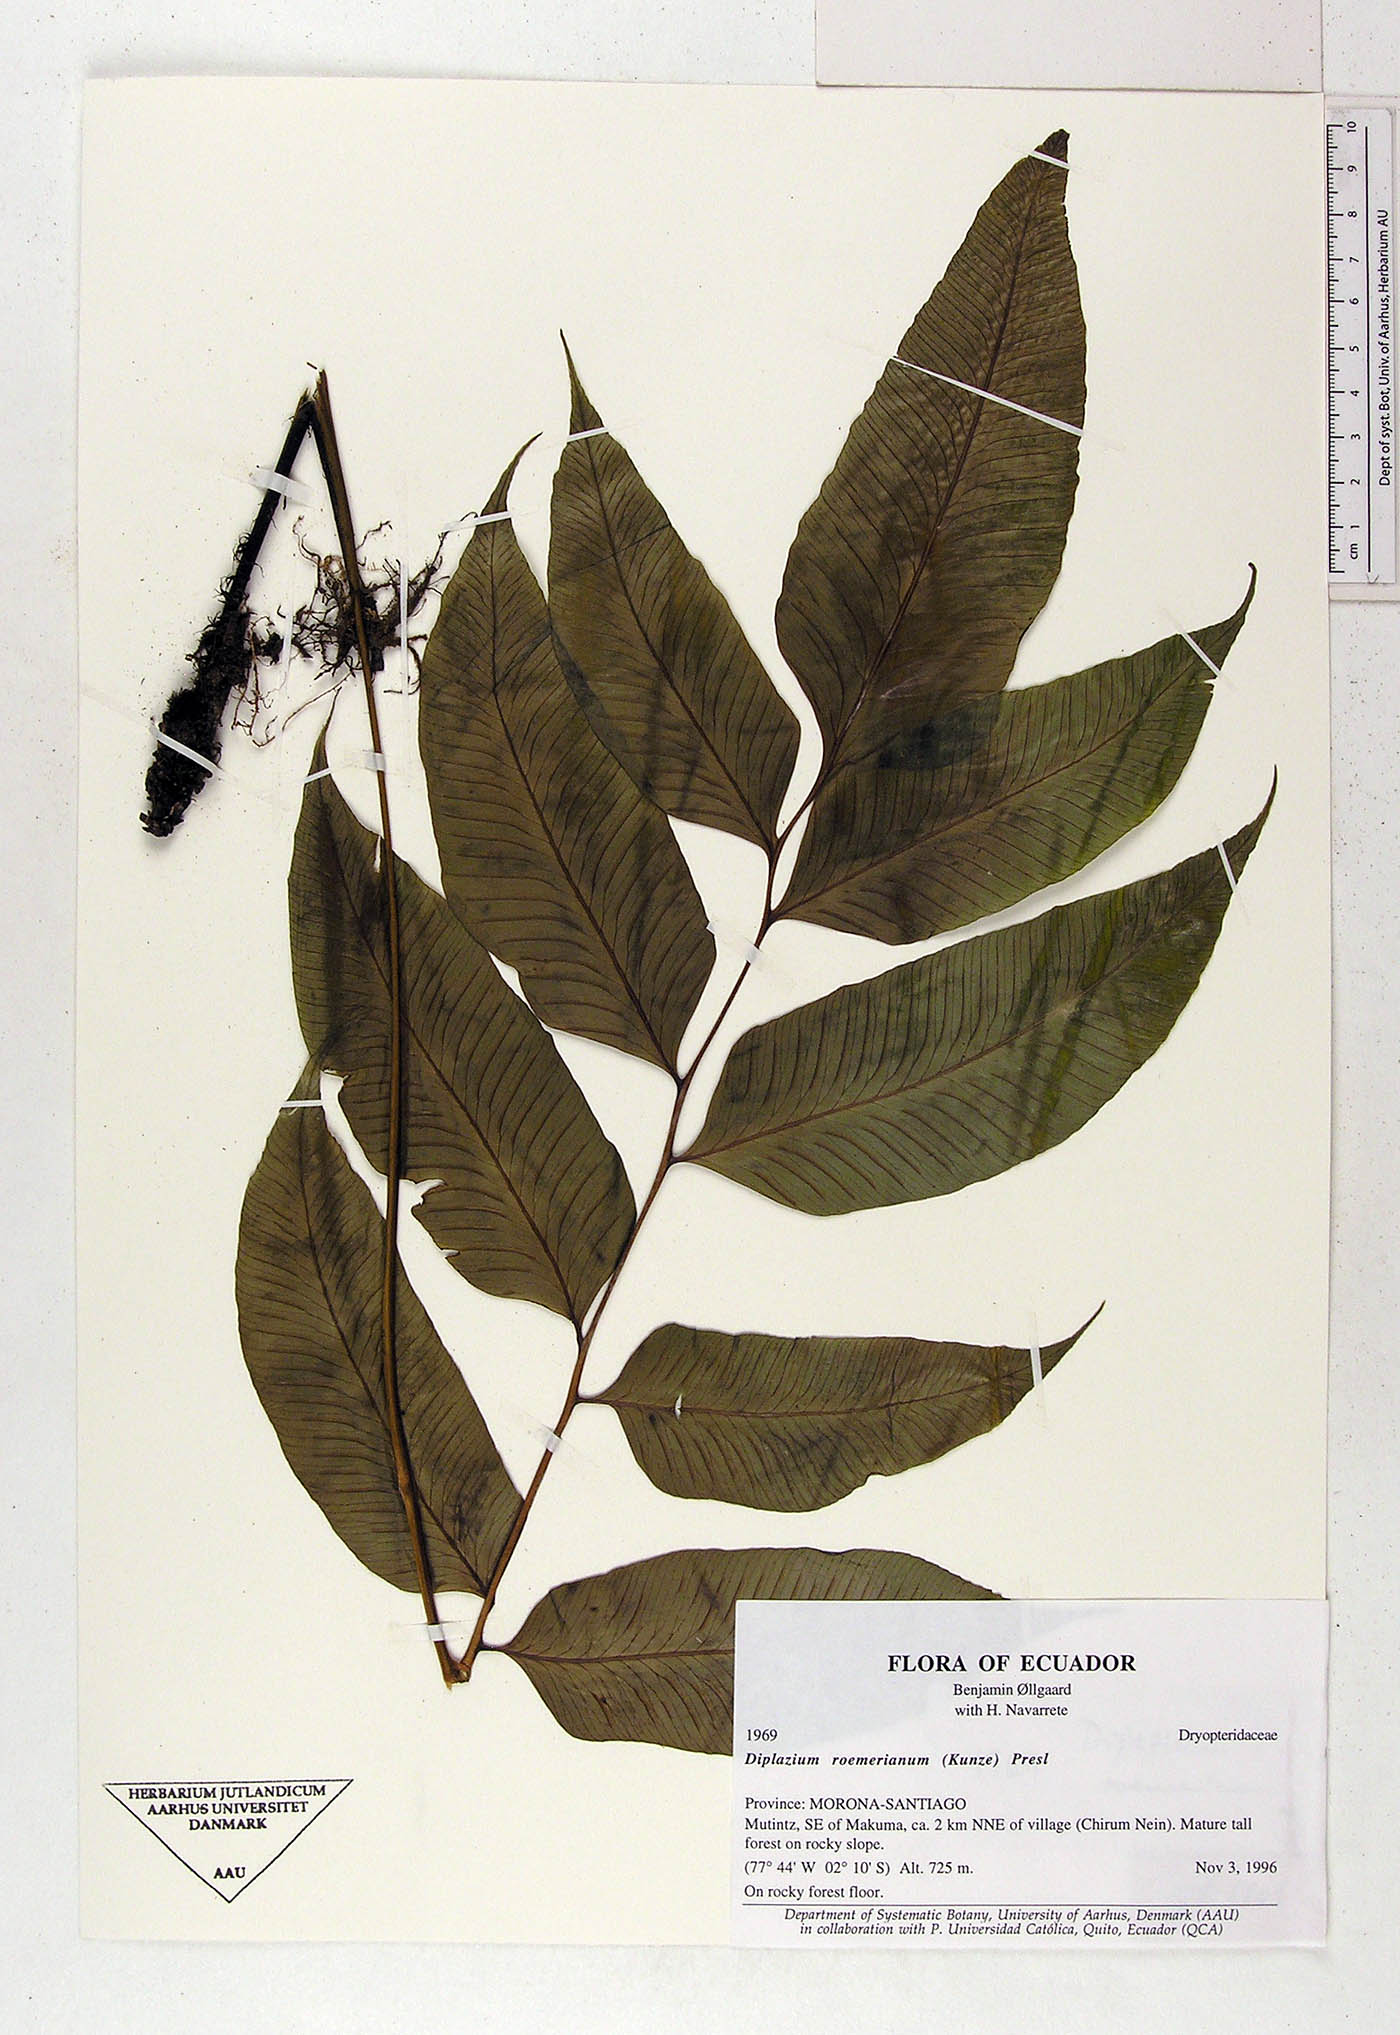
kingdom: Plantae
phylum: Tracheophyta
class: Polypodiopsida
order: Polypodiales
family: Athyriaceae
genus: Diplazium
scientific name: Diplazium roemerianum
